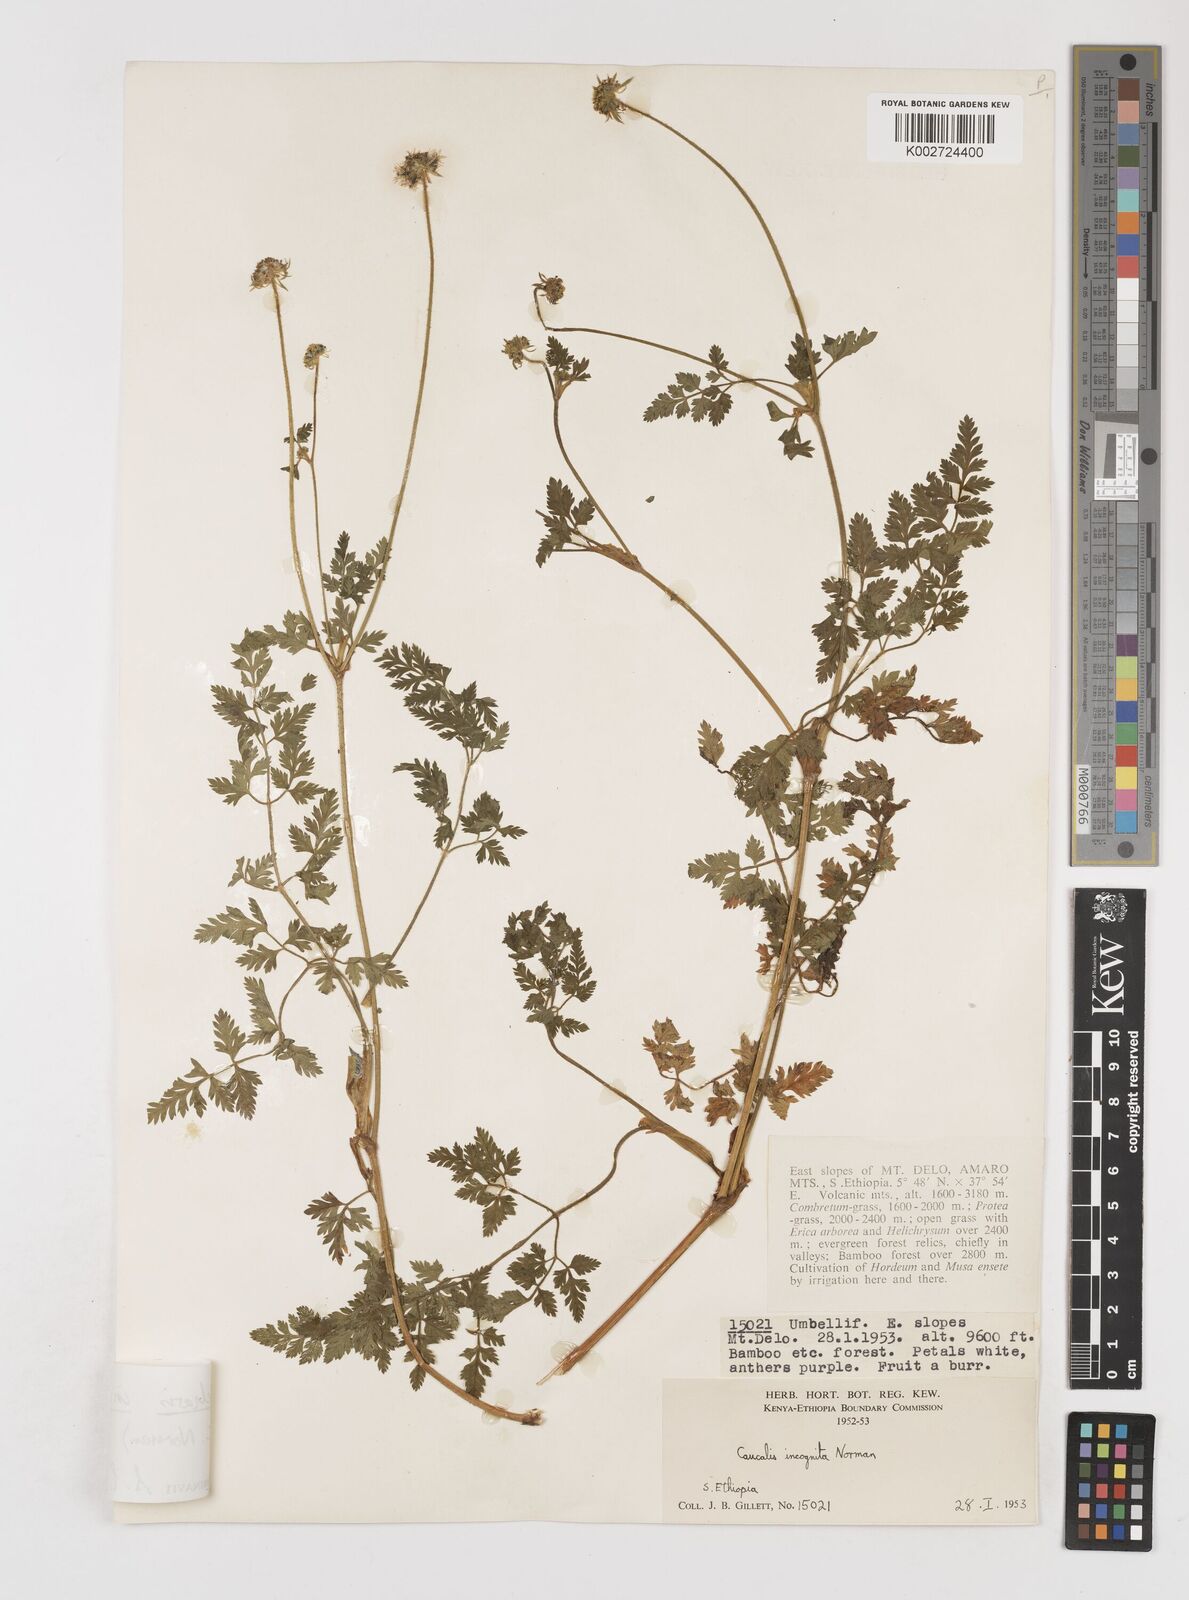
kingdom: Plantae
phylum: Tracheophyta
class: Magnoliopsida
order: Apiales
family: Apiaceae
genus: Daucus
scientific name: Daucus incognitus
